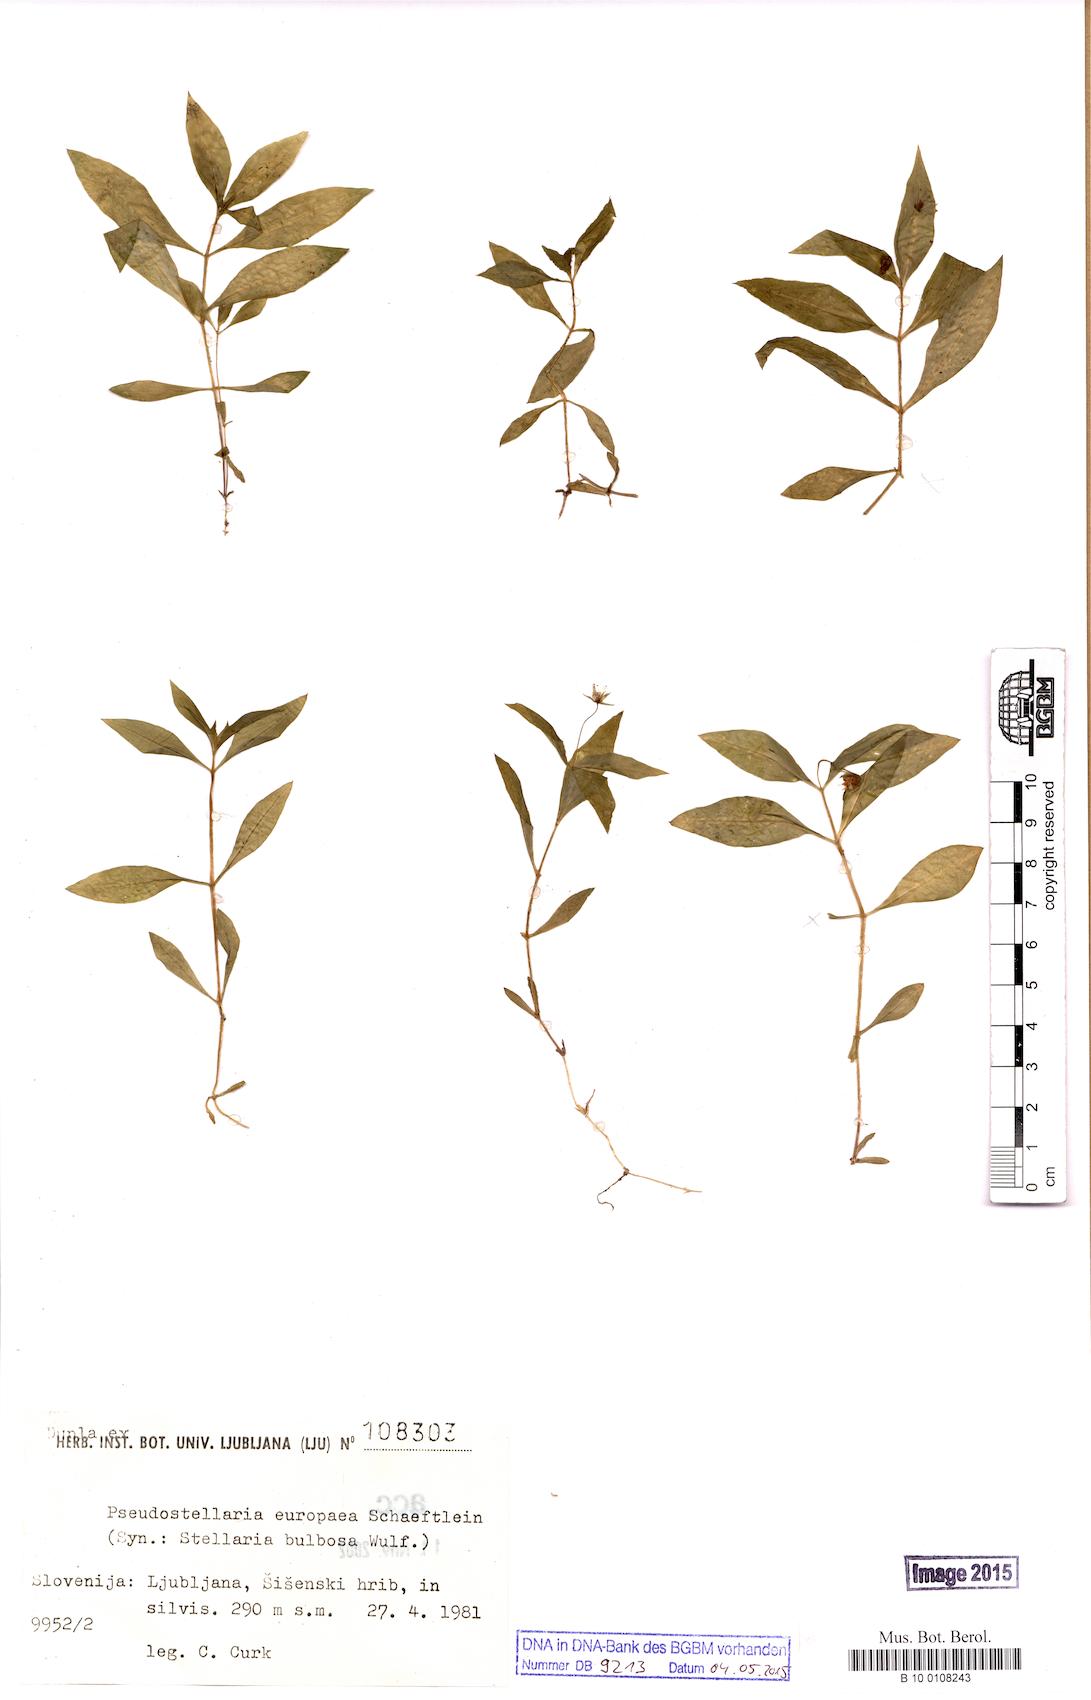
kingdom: Plantae
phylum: Tracheophyta
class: Magnoliopsida
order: Caryophyllales
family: Caryophyllaceae
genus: Pseudostellaria
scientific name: Pseudostellaria europaea
